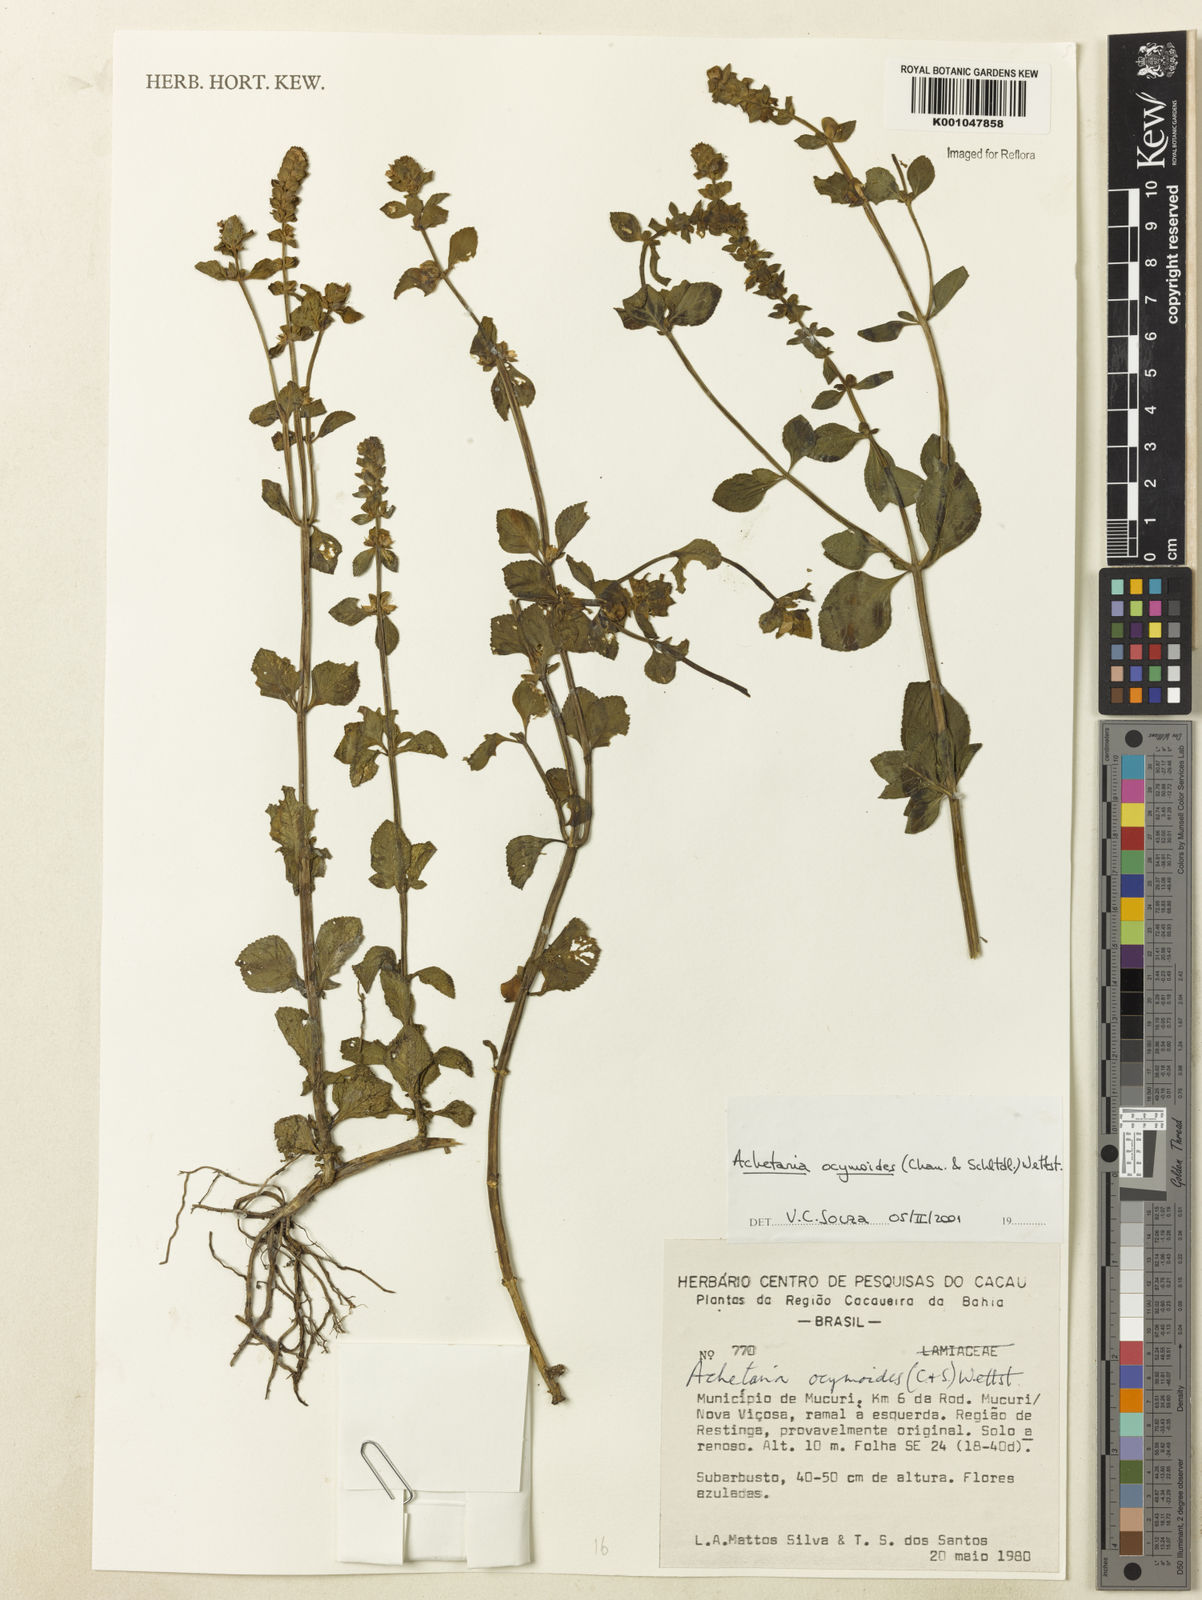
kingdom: Plantae
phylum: Tracheophyta
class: Magnoliopsida
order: Lamiales
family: Plantaginaceae
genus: Matourea
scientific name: Matourea ocymoides
